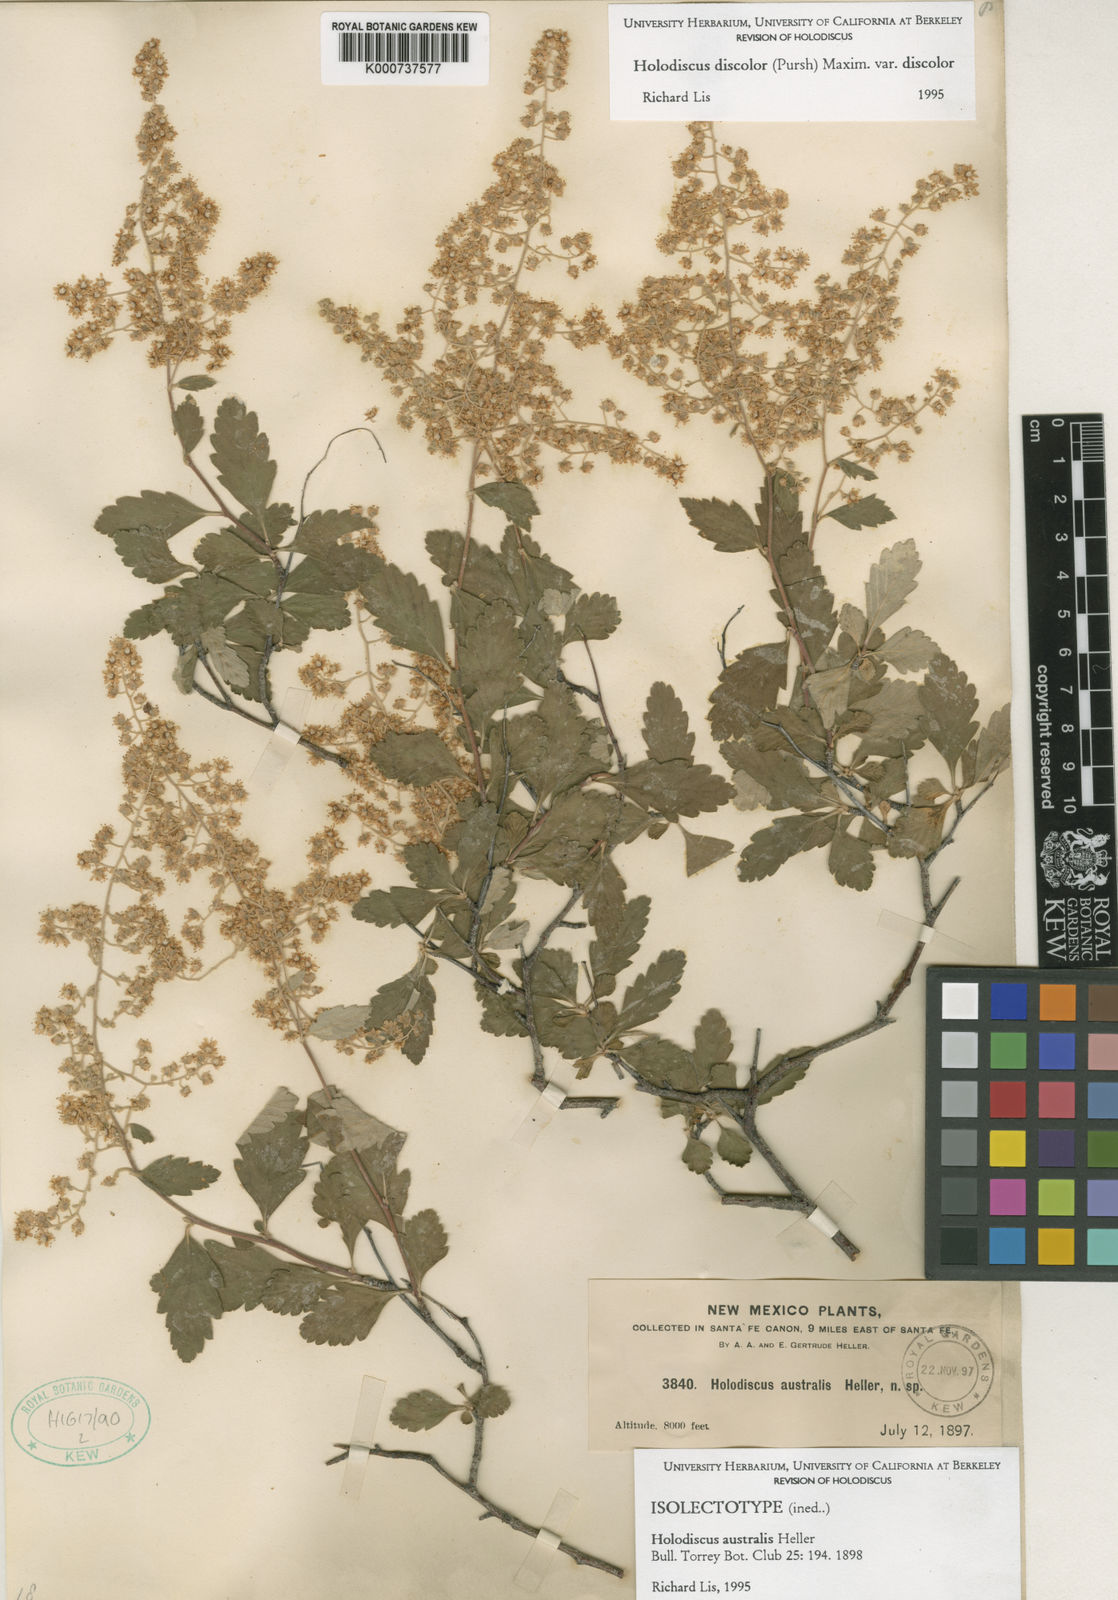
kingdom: Plantae
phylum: Tracheophyta
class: Magnoliopsida
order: Rosales
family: Rosaceae
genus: Holodiscus
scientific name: Holodiscus australis
